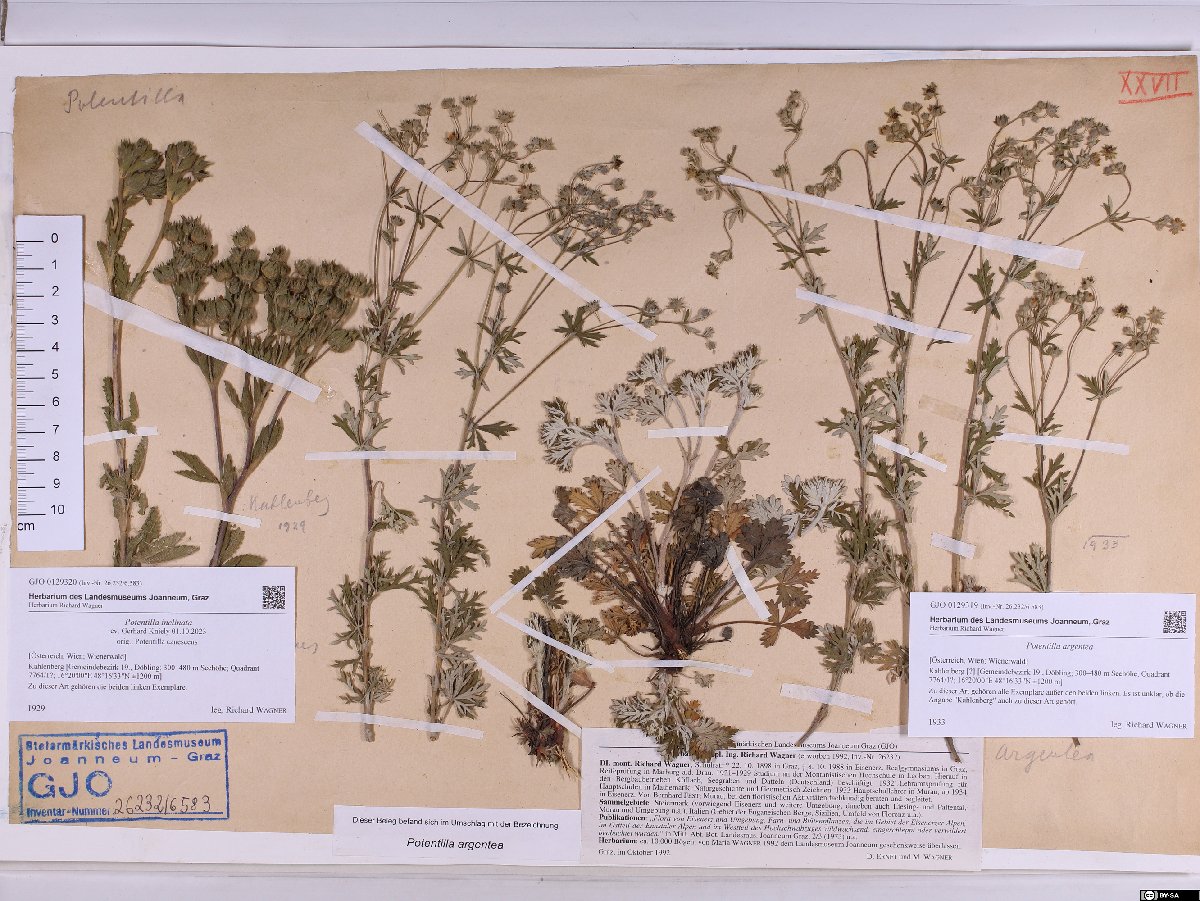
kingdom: Plantae
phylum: Tracheophyta
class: Magnoliopsida
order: Rosales
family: Rosaceae
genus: Potentilla
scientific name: Potentilla inclinata
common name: Grey cinquefoil
